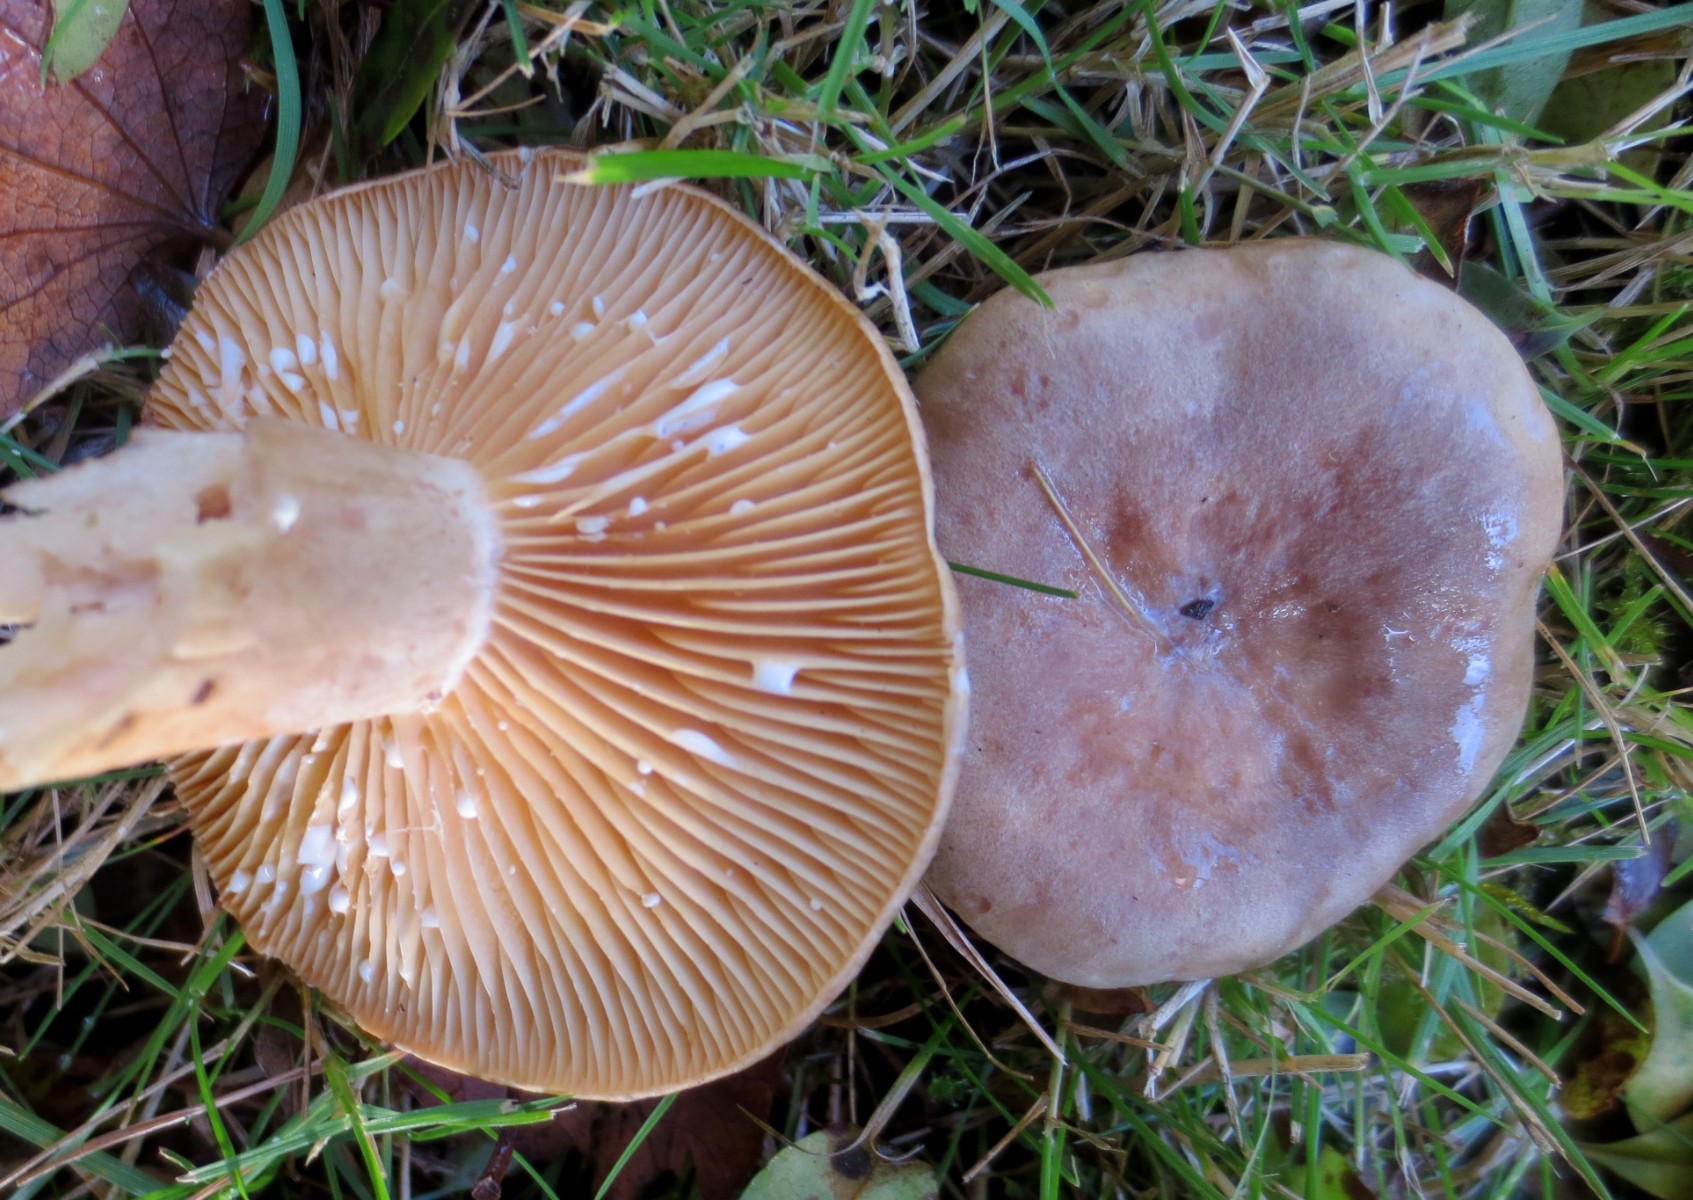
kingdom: Fungi
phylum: Basidiomycota
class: Agaricomycetes
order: Russulales
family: Russulaceae
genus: Lactarius
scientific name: Lactarius pyrogalus
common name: hassel-mælkehat
